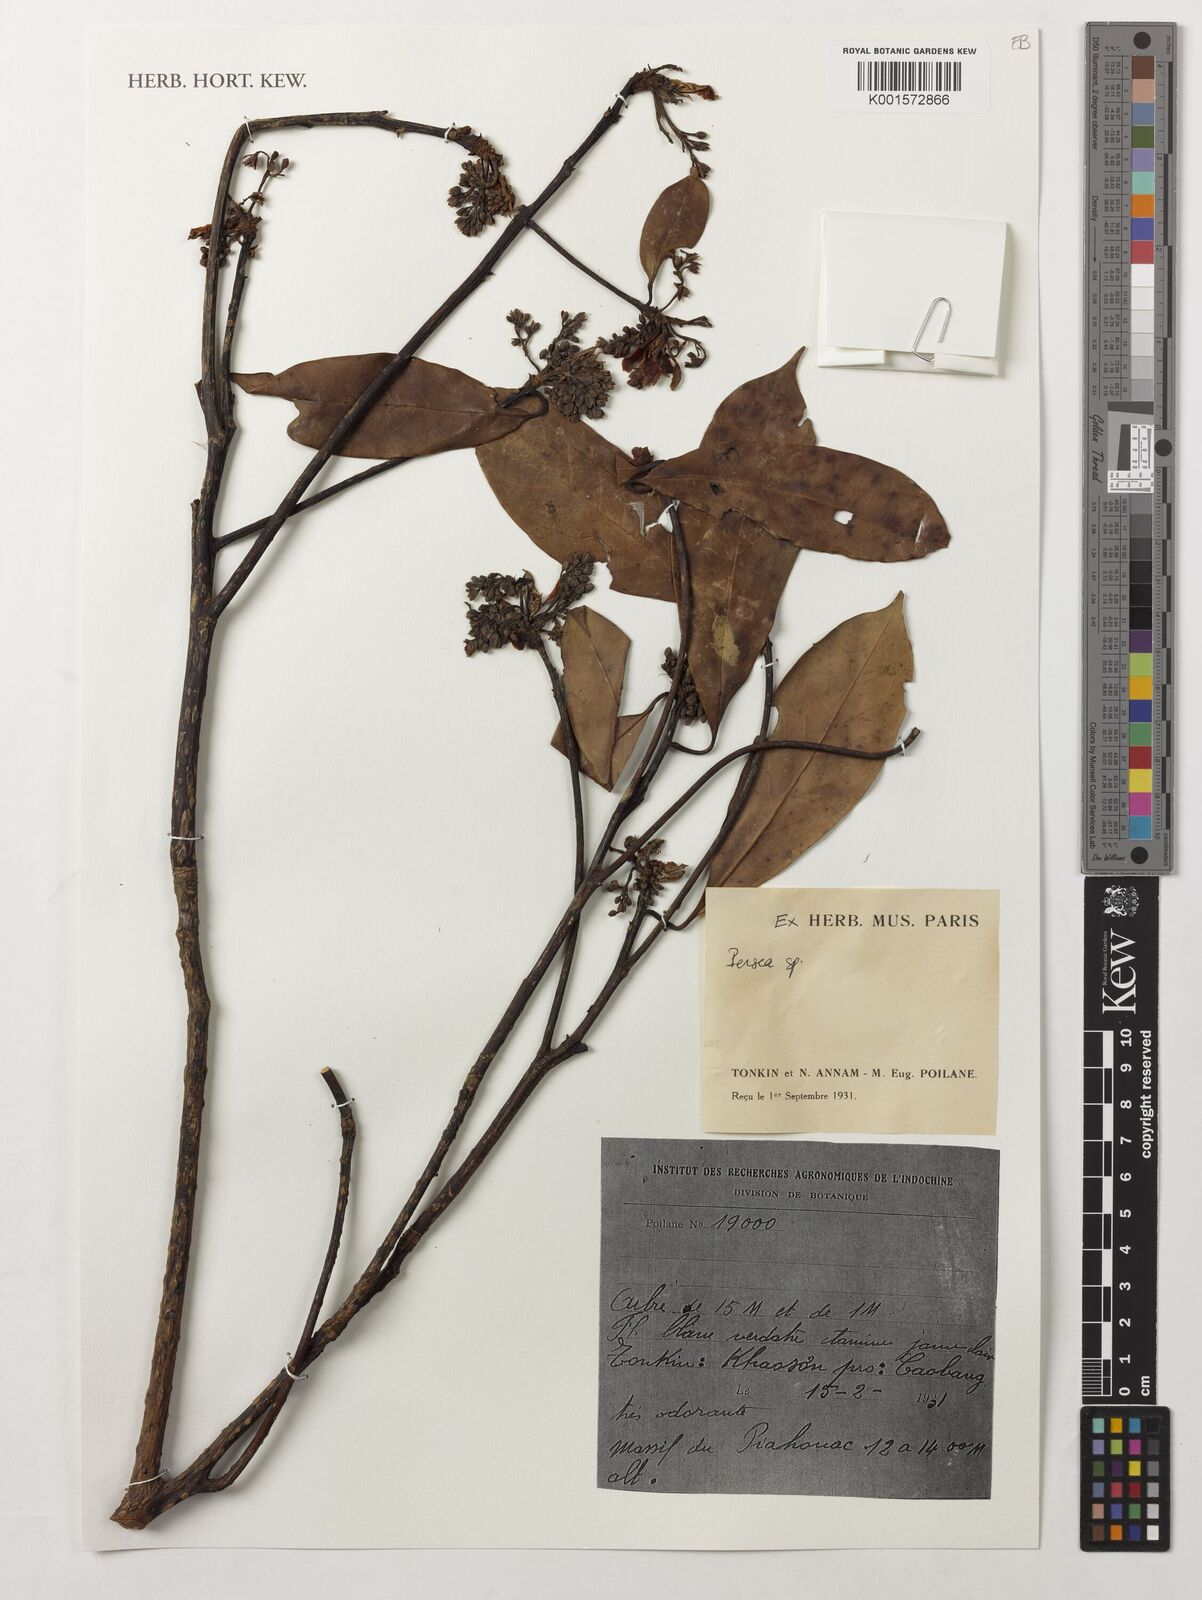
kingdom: Plantae
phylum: Tracheophyta
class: Magnoliopsida
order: Laurales
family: Lauraceae
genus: Persea
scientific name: Persea
